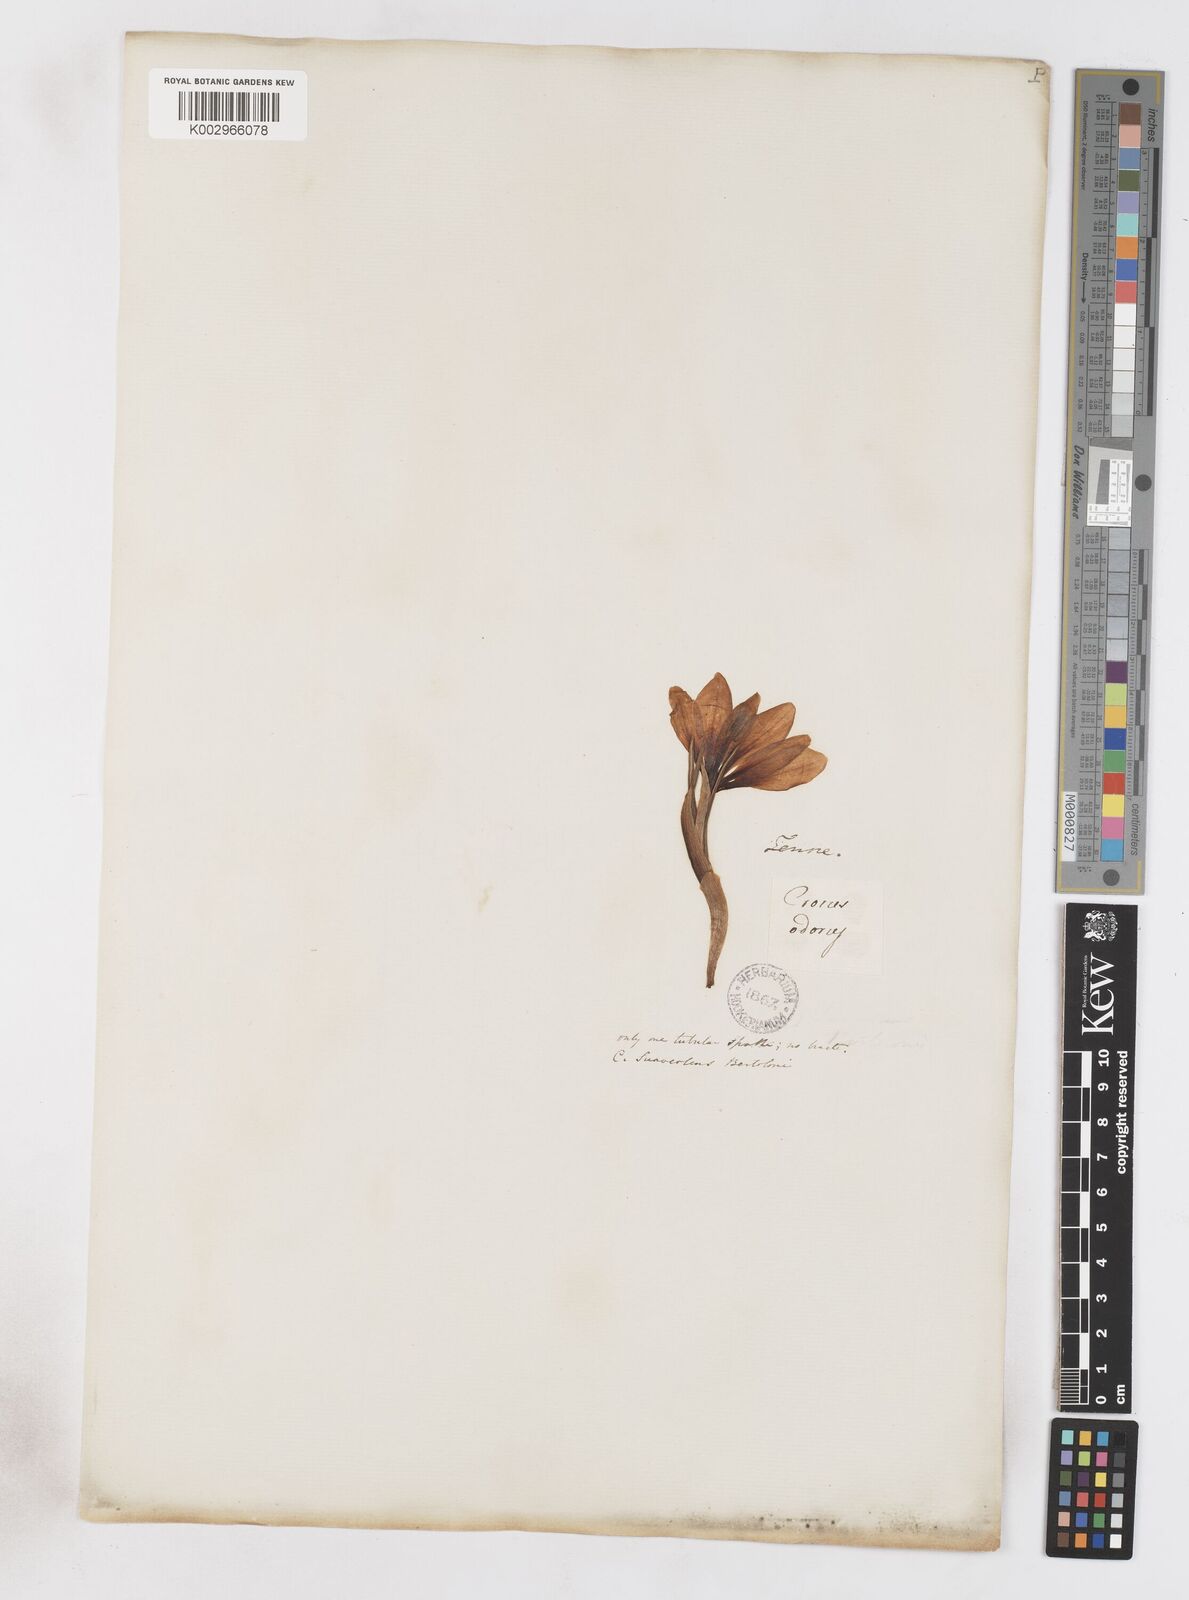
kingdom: Plantae
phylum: Tracheophyta
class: Liliopsida
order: Asparagales
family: Iridaceae
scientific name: Iridaceae
